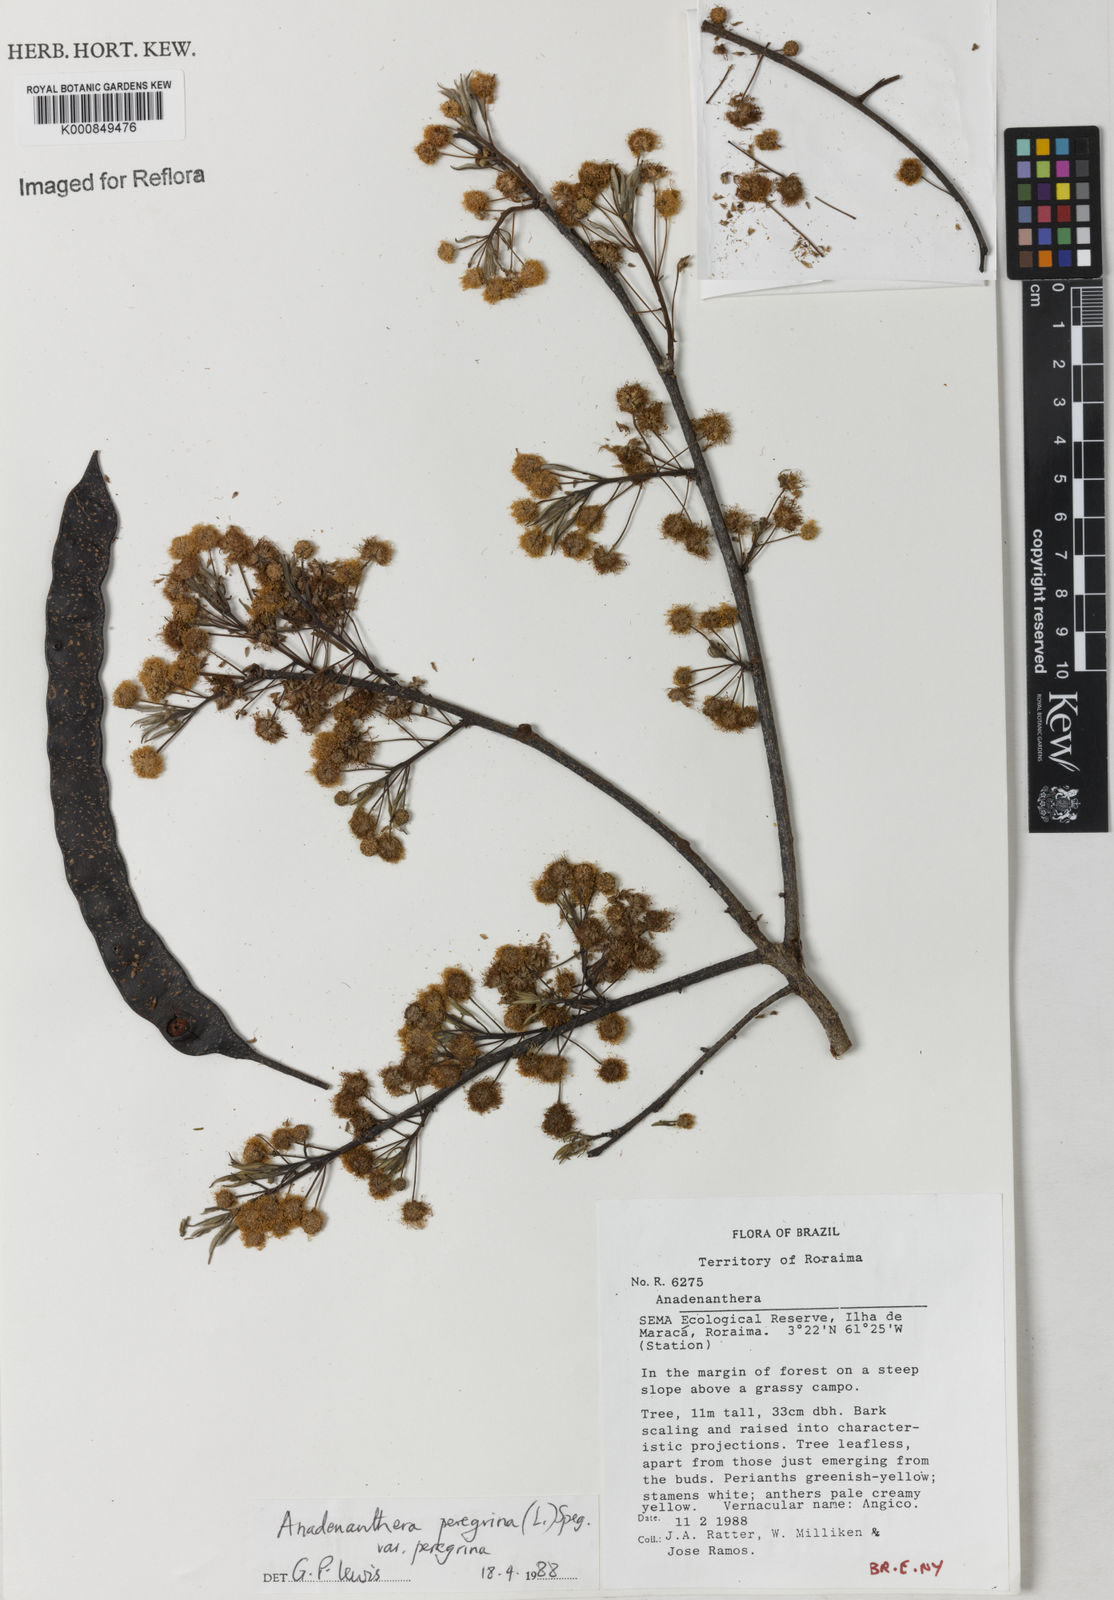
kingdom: Plantae
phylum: Tracheophyta
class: Magnoliopsida
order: Fabales
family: Fabaceae
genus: Anadenanthera
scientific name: Anadenanthera peregrina
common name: Cohoba
